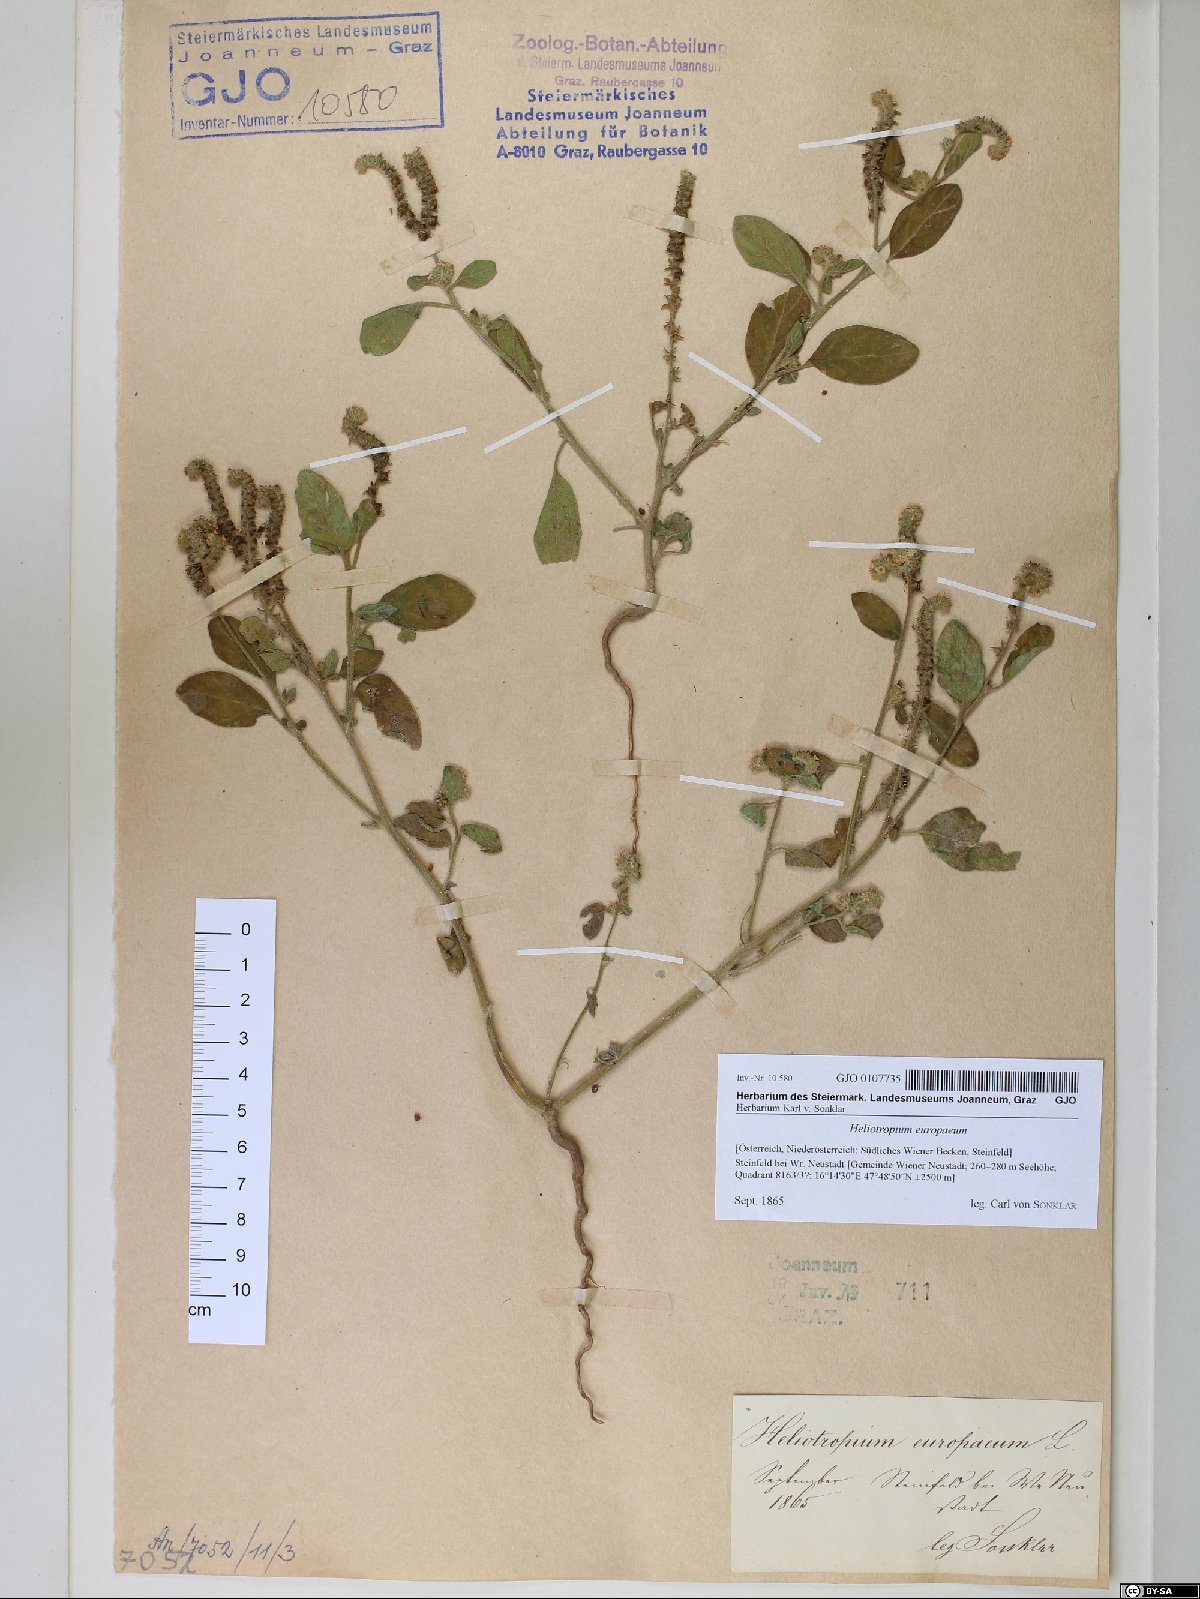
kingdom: Plantae
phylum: Tracheophyta
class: Magnoliopsida
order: Boraginales
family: Heliotropiaceae
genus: Heliotropium
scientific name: Heliotropium europaeum
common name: European heliotrope
